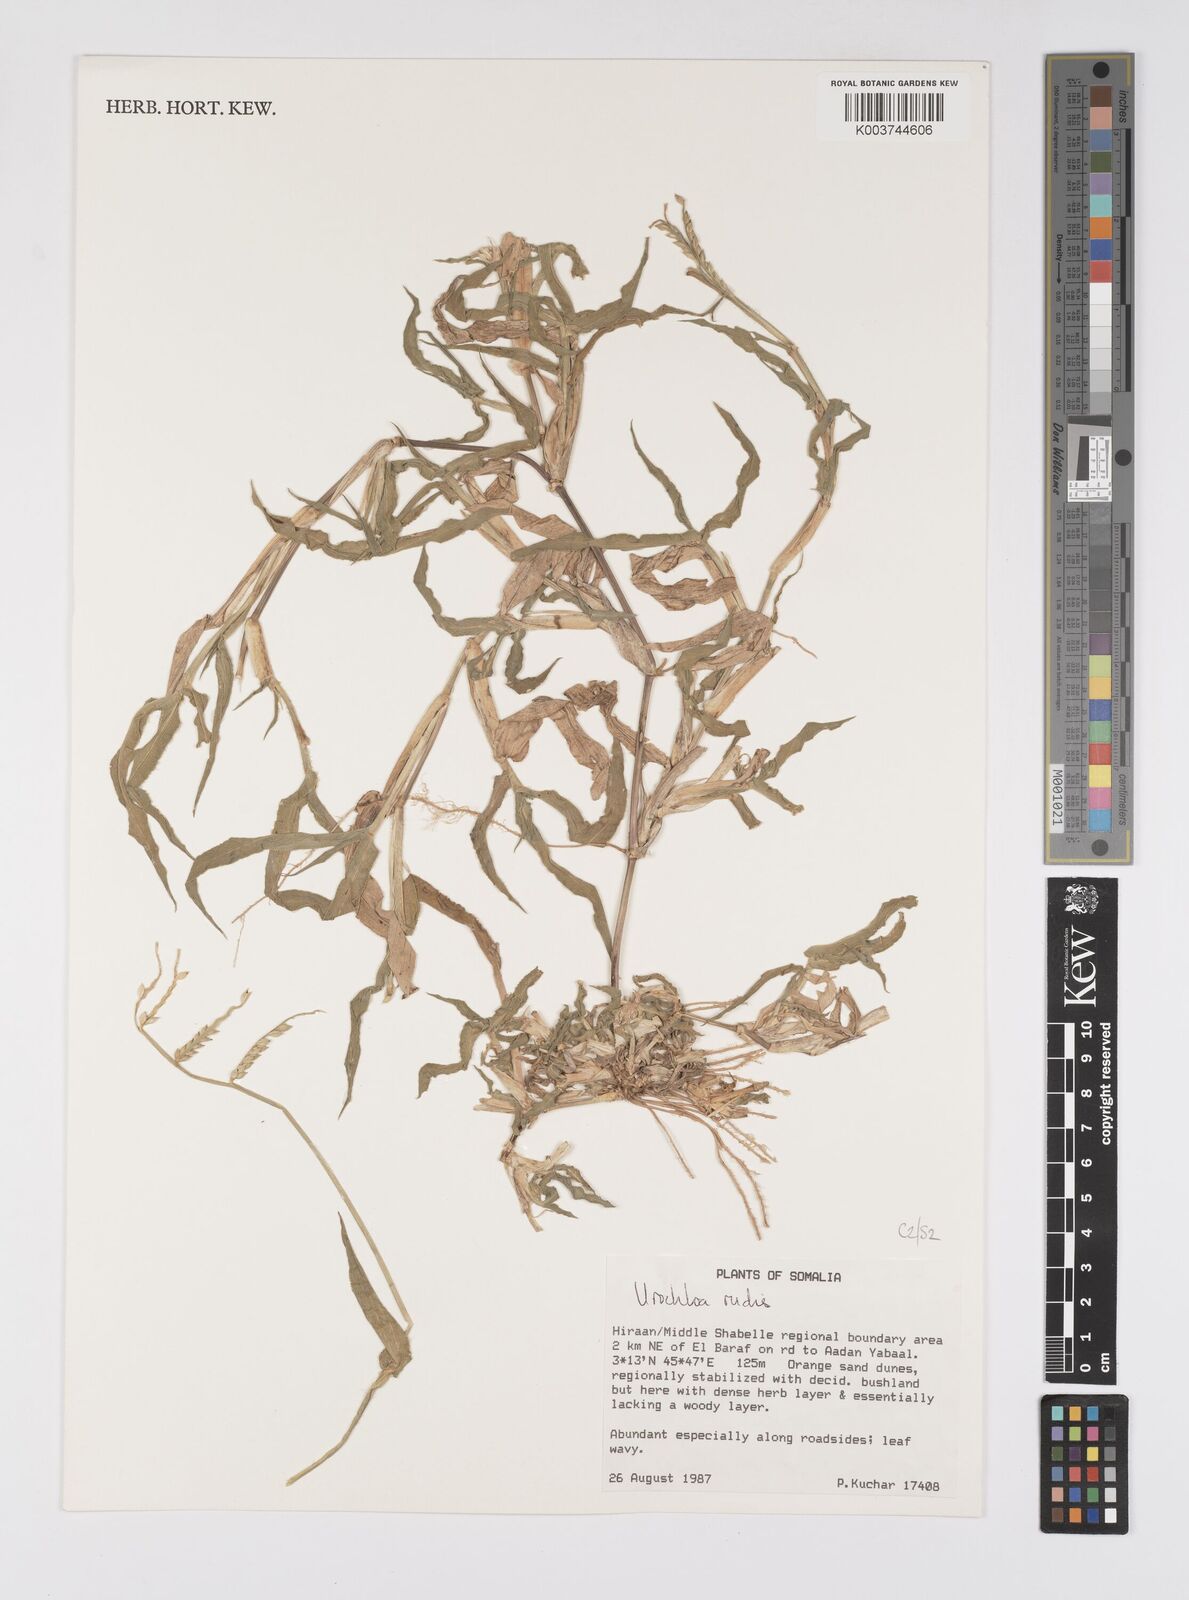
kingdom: Plantae
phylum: Tracheophyta
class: Liliopsida
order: Poales
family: Poaceae
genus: Urochloa
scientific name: Urochloa rudis
